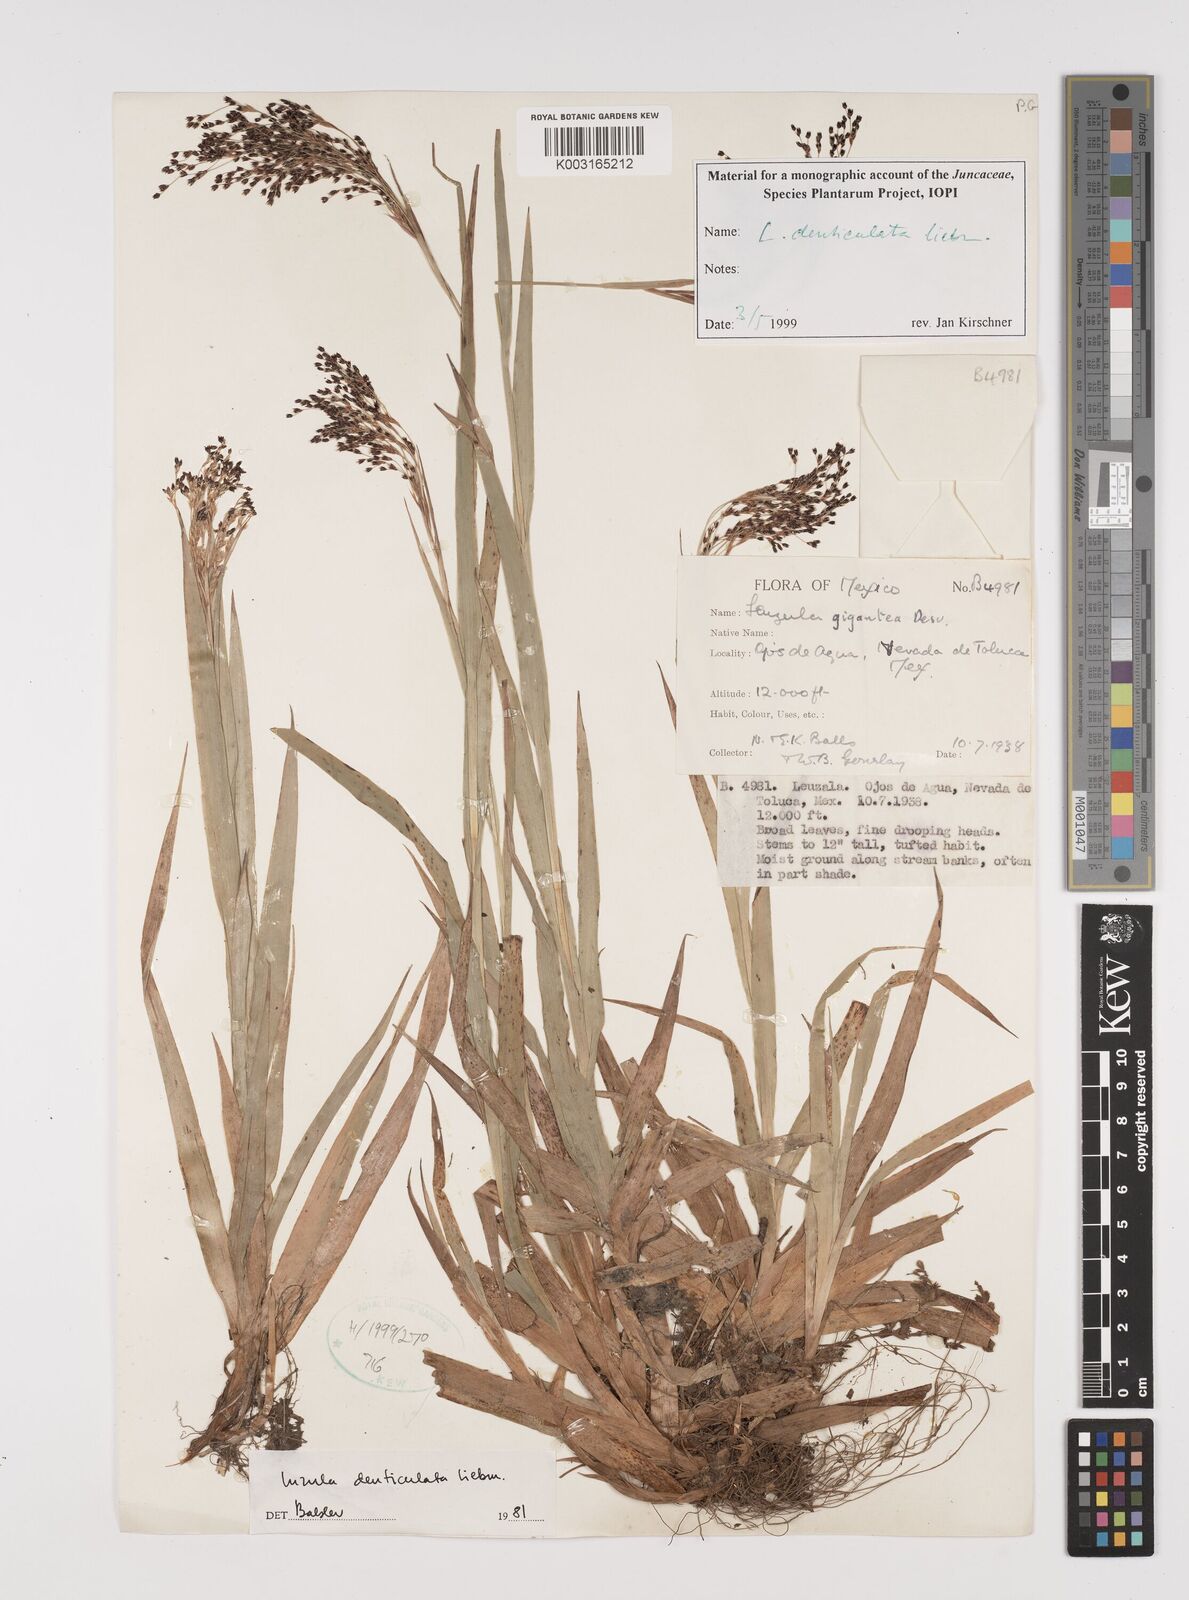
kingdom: Plantae
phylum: Tracheophyta
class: Liliopsida
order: Poales
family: Juncaceae
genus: Luzula
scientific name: Luzula gigantea
